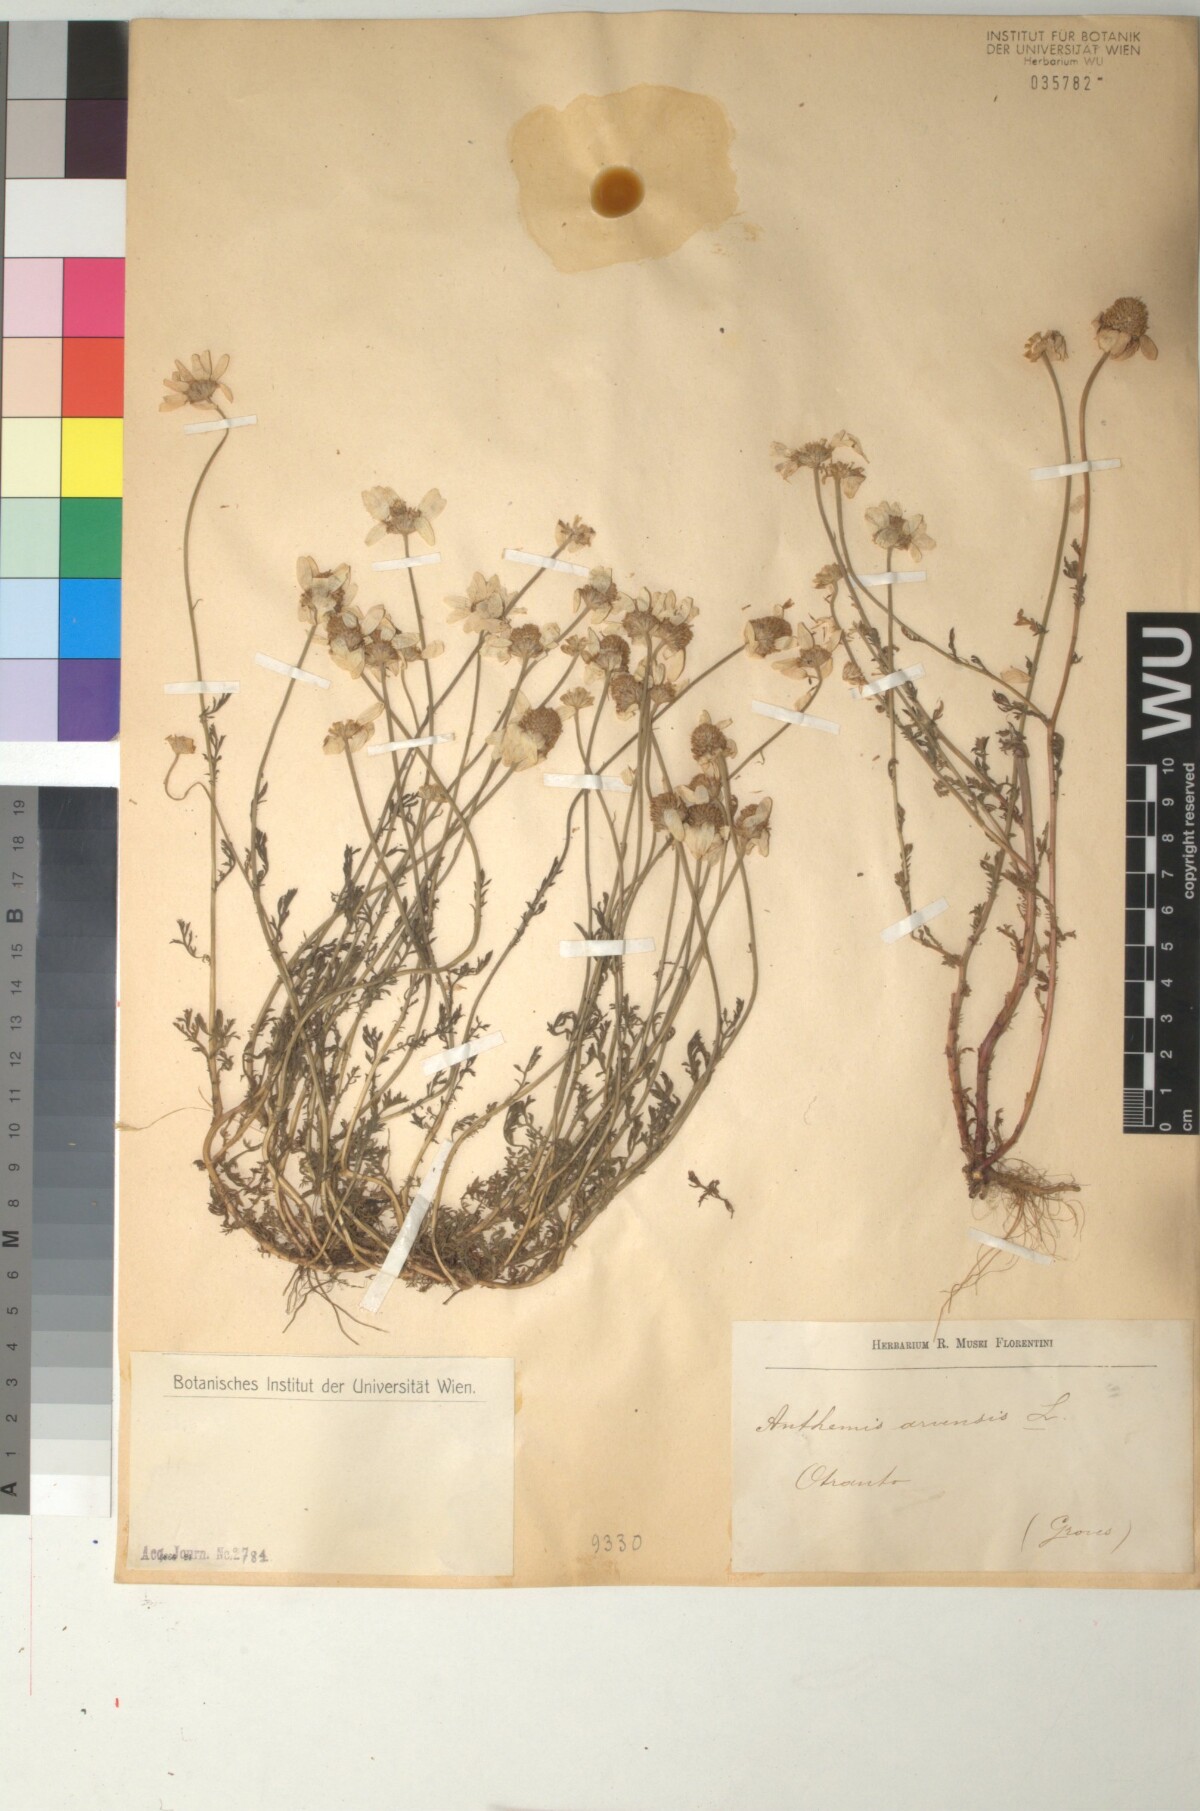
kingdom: Plantae
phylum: Tracheophyta
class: Magnoliopsida
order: Asterales
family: Asteraceae
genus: Anthemis
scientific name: Anthemis arvensis
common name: Corn chamomile
